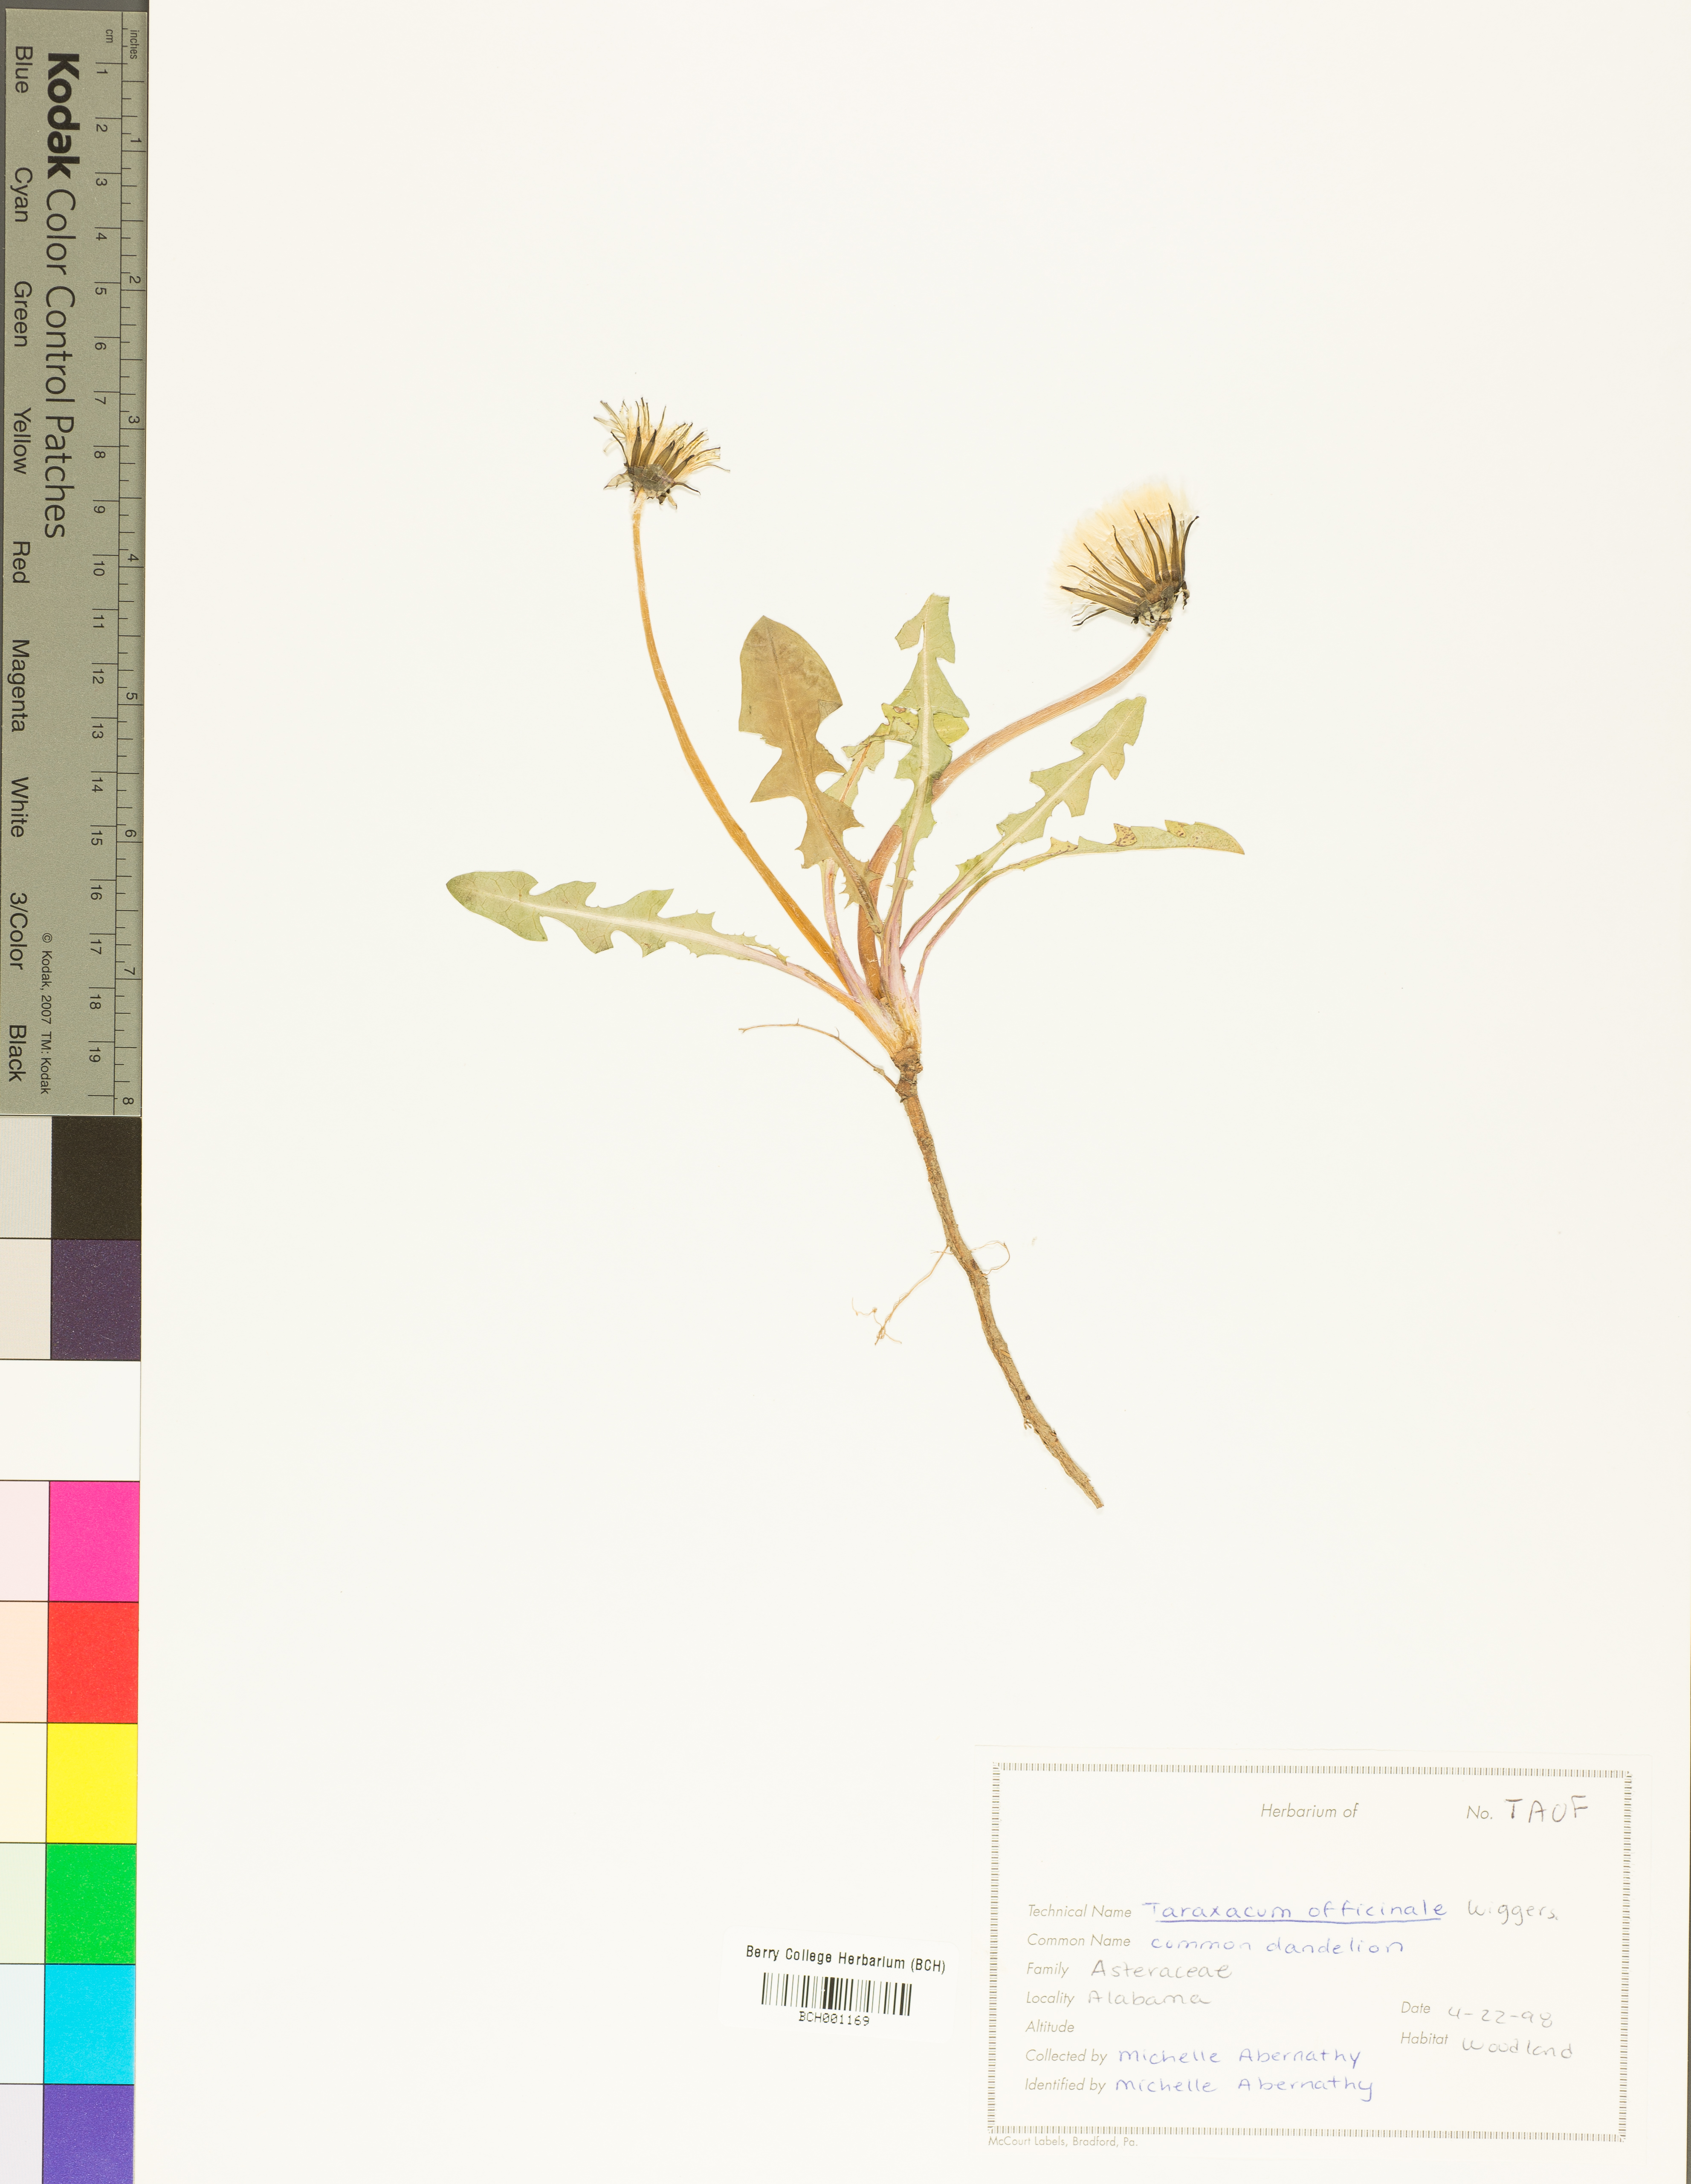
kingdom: Plantae
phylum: Tracheophyta
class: Magnoliopsida
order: Asterales
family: Asteraceae
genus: Taraxacum
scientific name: Taraxacum officinale
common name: Common dandelion
